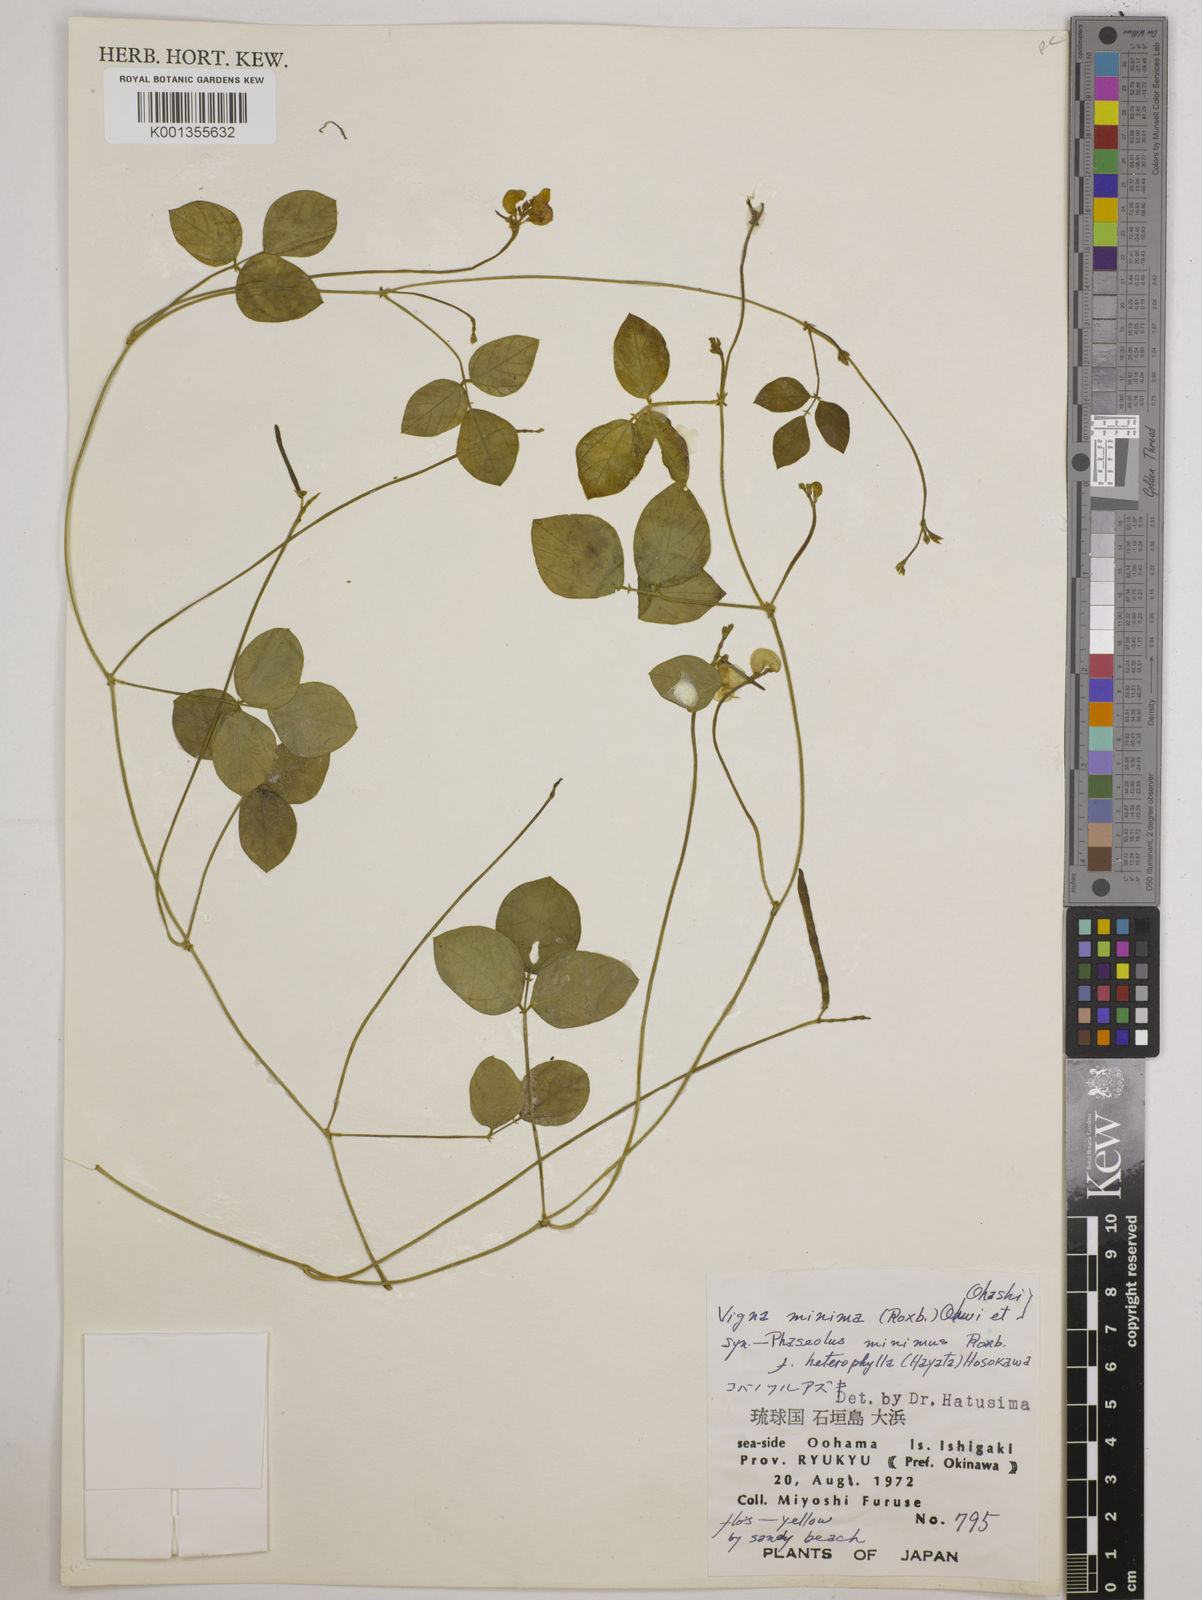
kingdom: Plantae
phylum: Tracheophyta
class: Magnoliopsida
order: Fabales
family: Fabaceae
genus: Vigna
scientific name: Vigna minima
